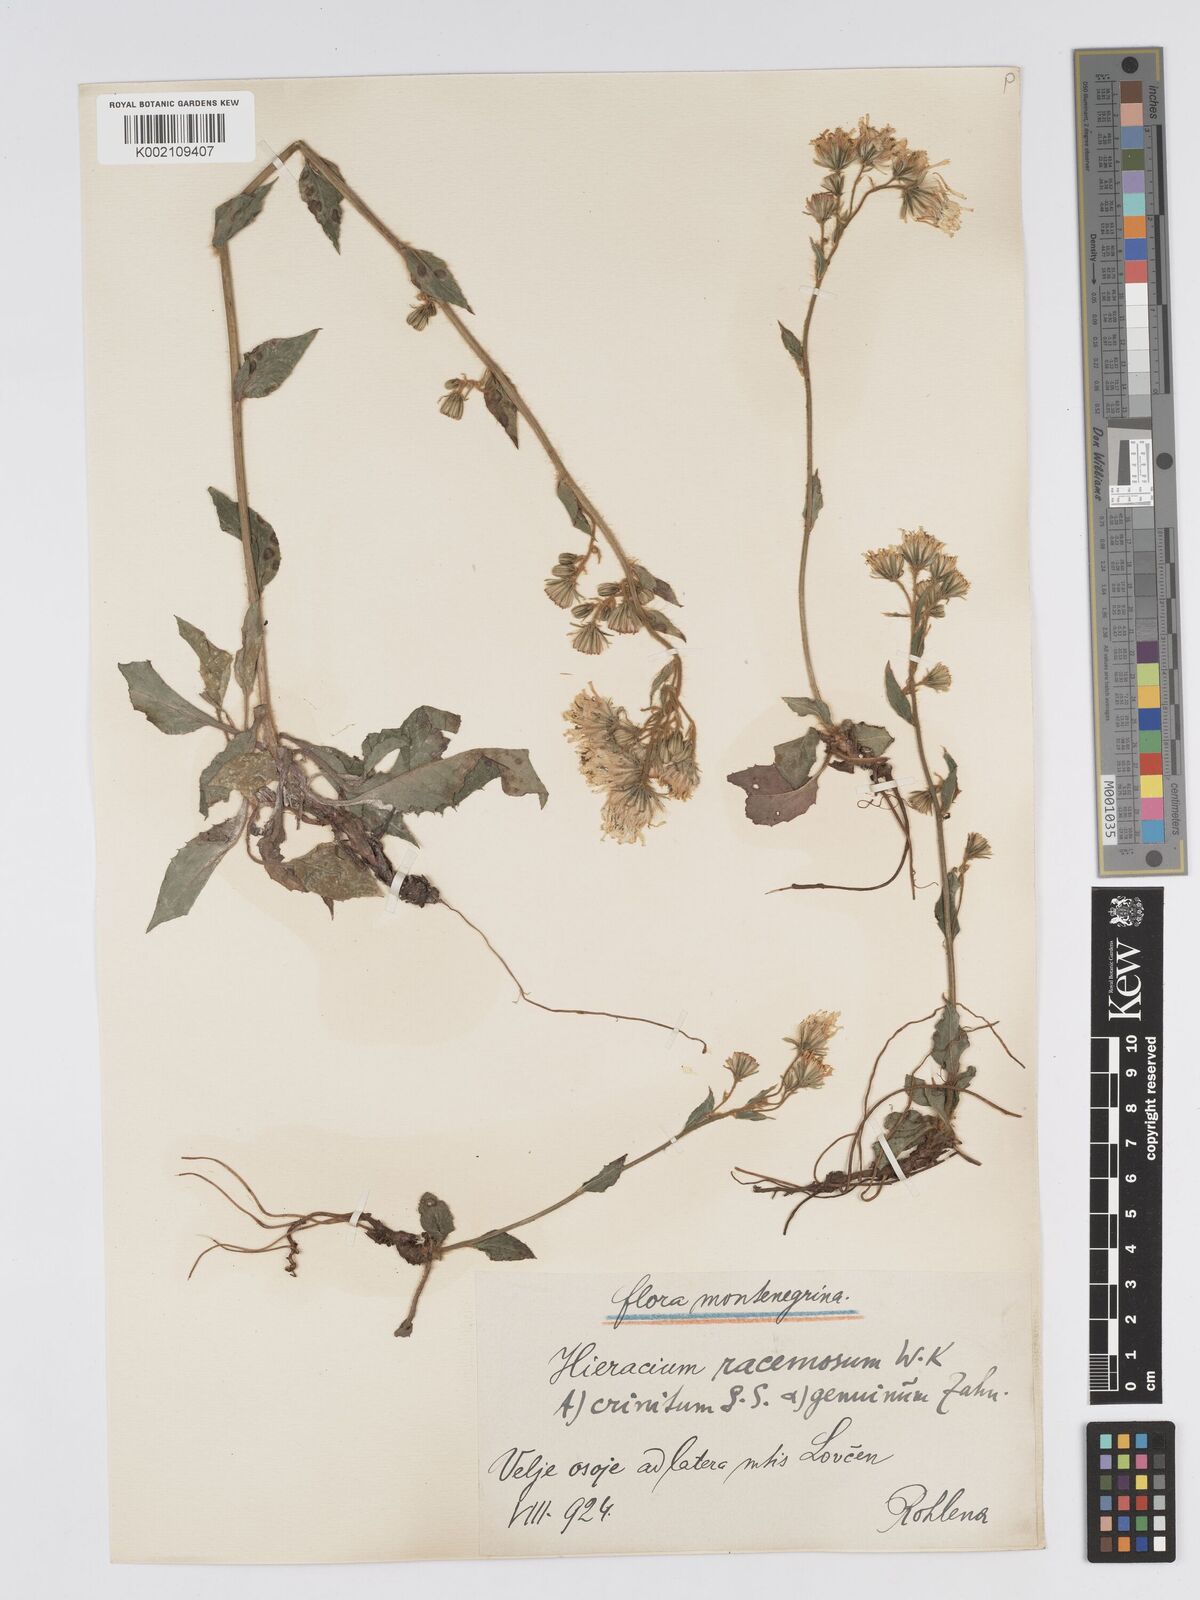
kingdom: Plantae
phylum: Tracheophyta
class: Magnoliopsida
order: Asterales
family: Asteraceae
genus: Hieracium
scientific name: Hieracium racemosum
